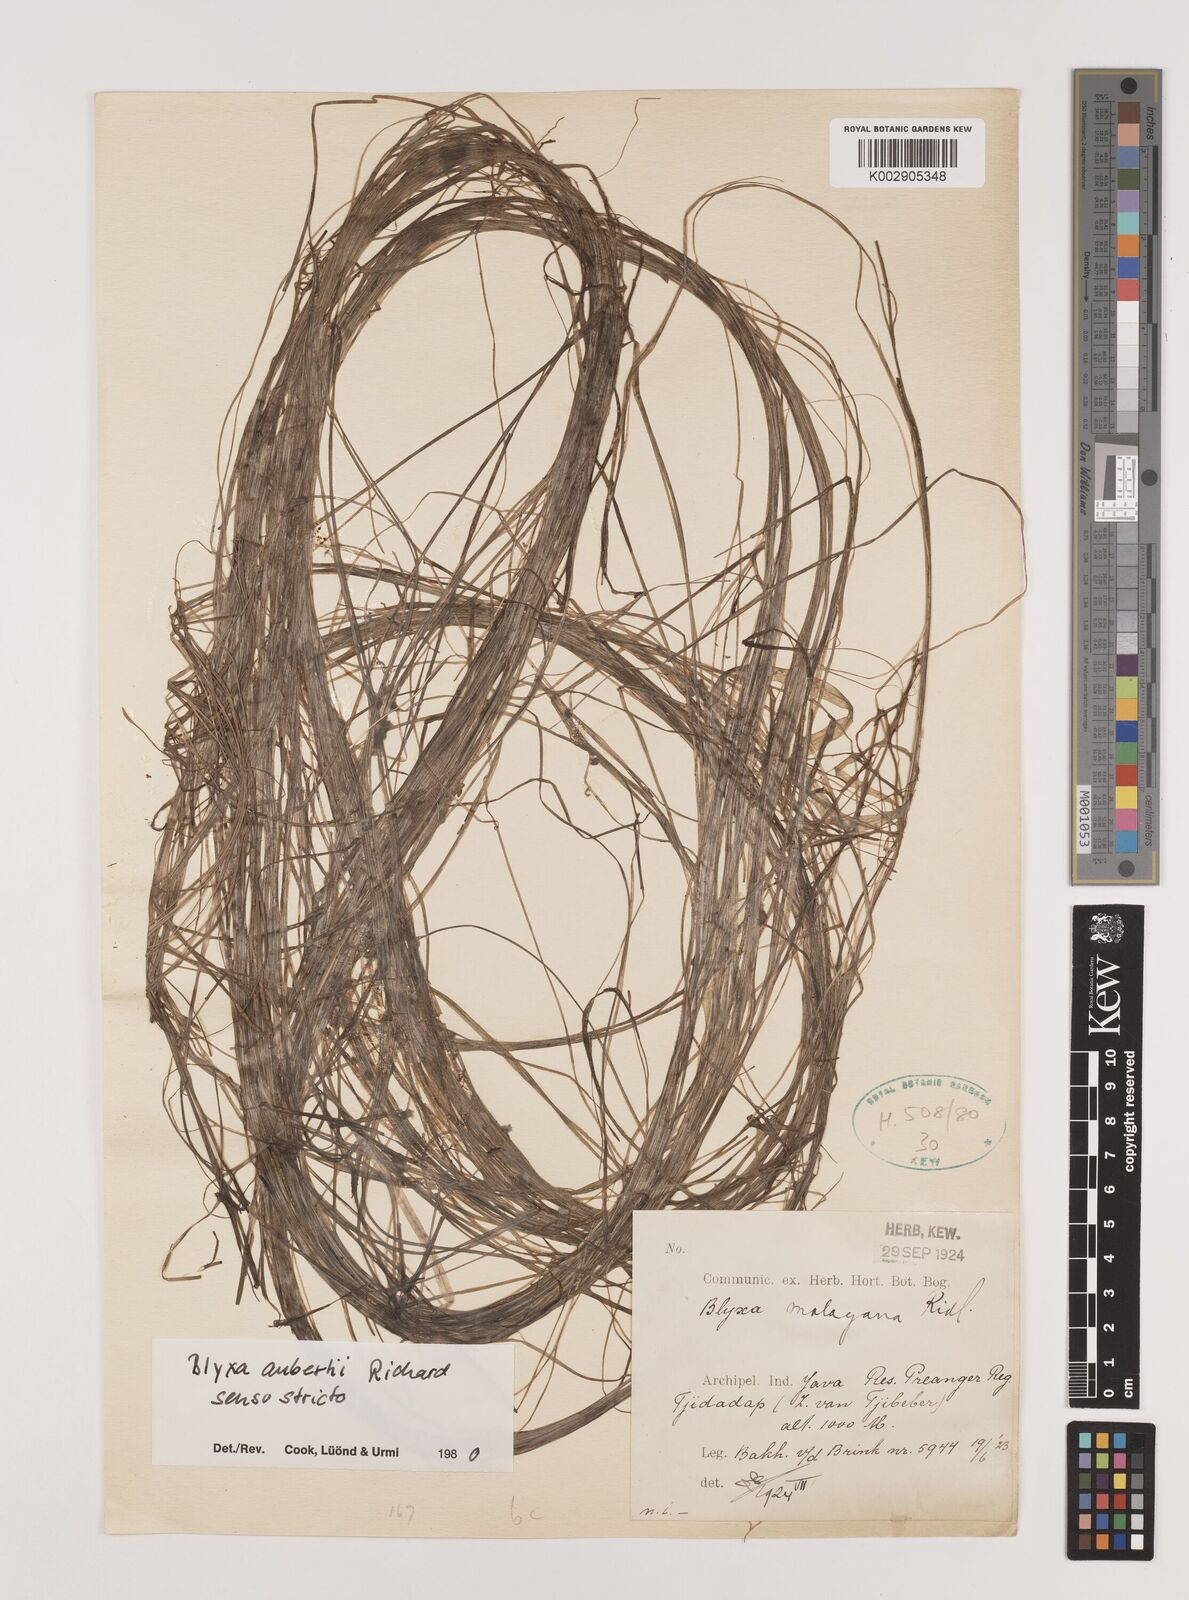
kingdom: Plantae
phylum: Tracheophyta
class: Liliopsida
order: Alismatales
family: Hydrocharitaceae
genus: Blyxa
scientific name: Blyxa aubertii
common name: Roundfruit blyxa
